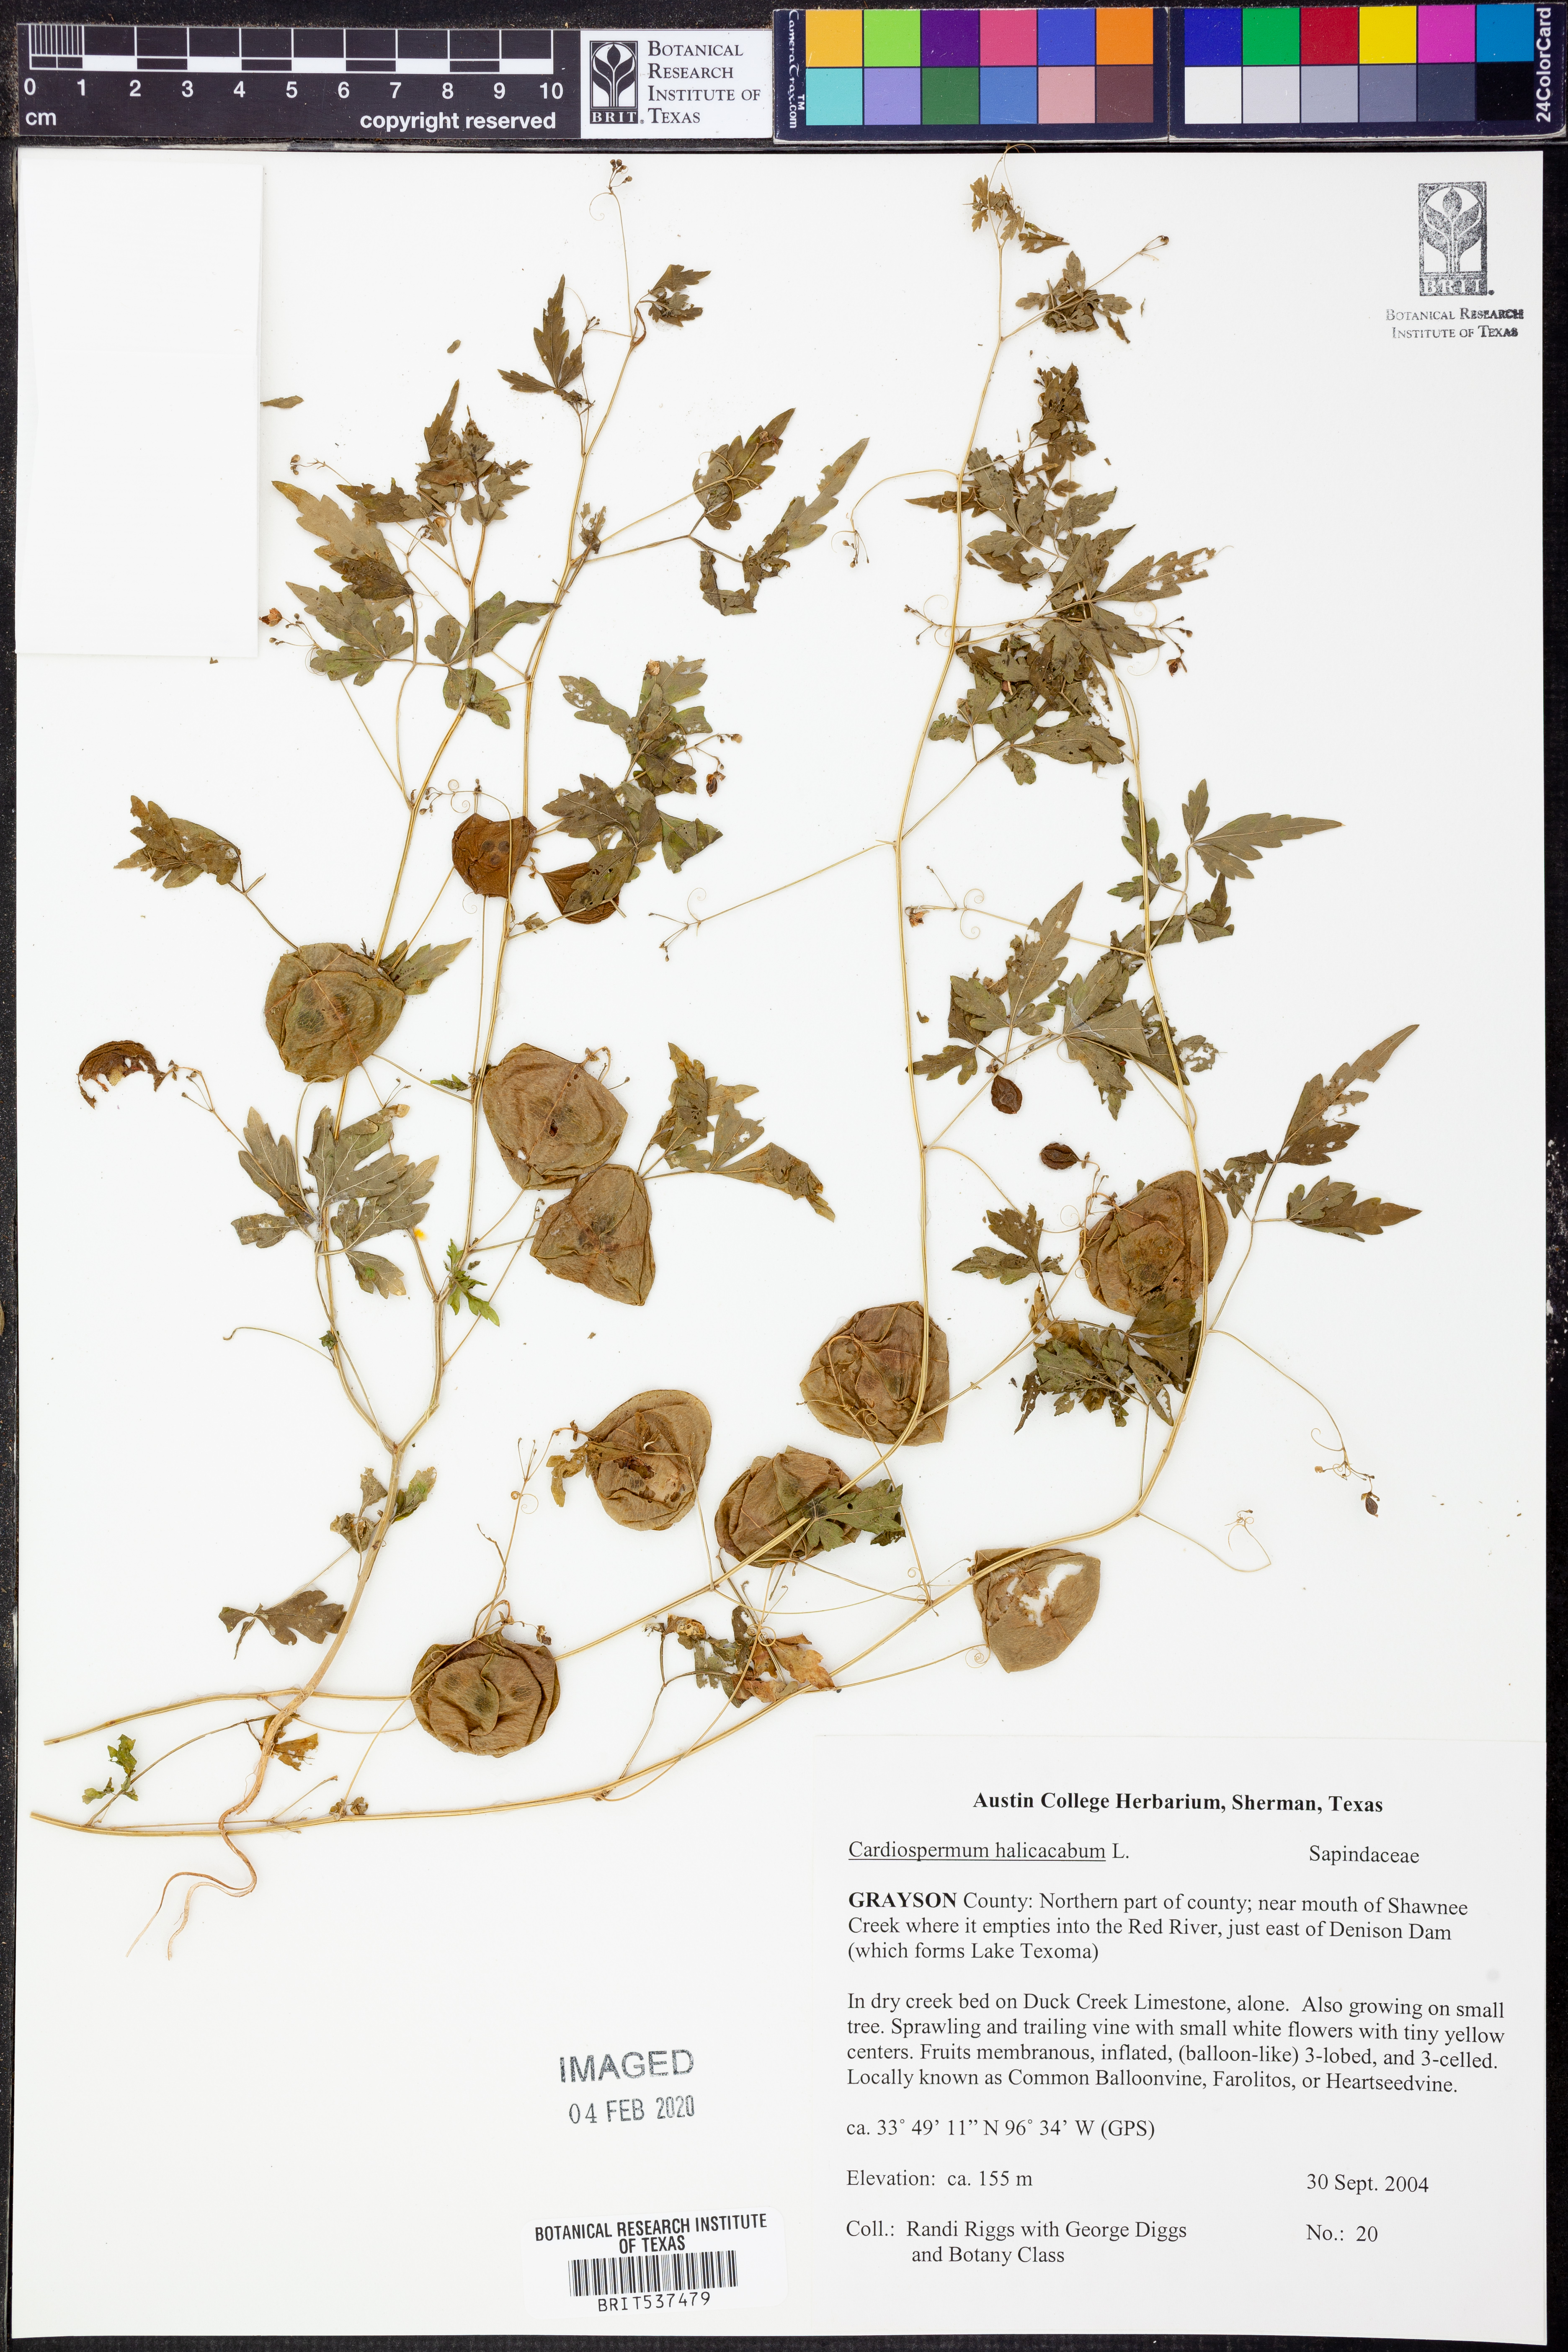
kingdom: Plantae
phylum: Tracheophyta
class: Magnoliopsida
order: Sapindales
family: Sapindaceae
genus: Cardiospermum
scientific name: Cardiospermum halicacabum
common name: Balloon vine
